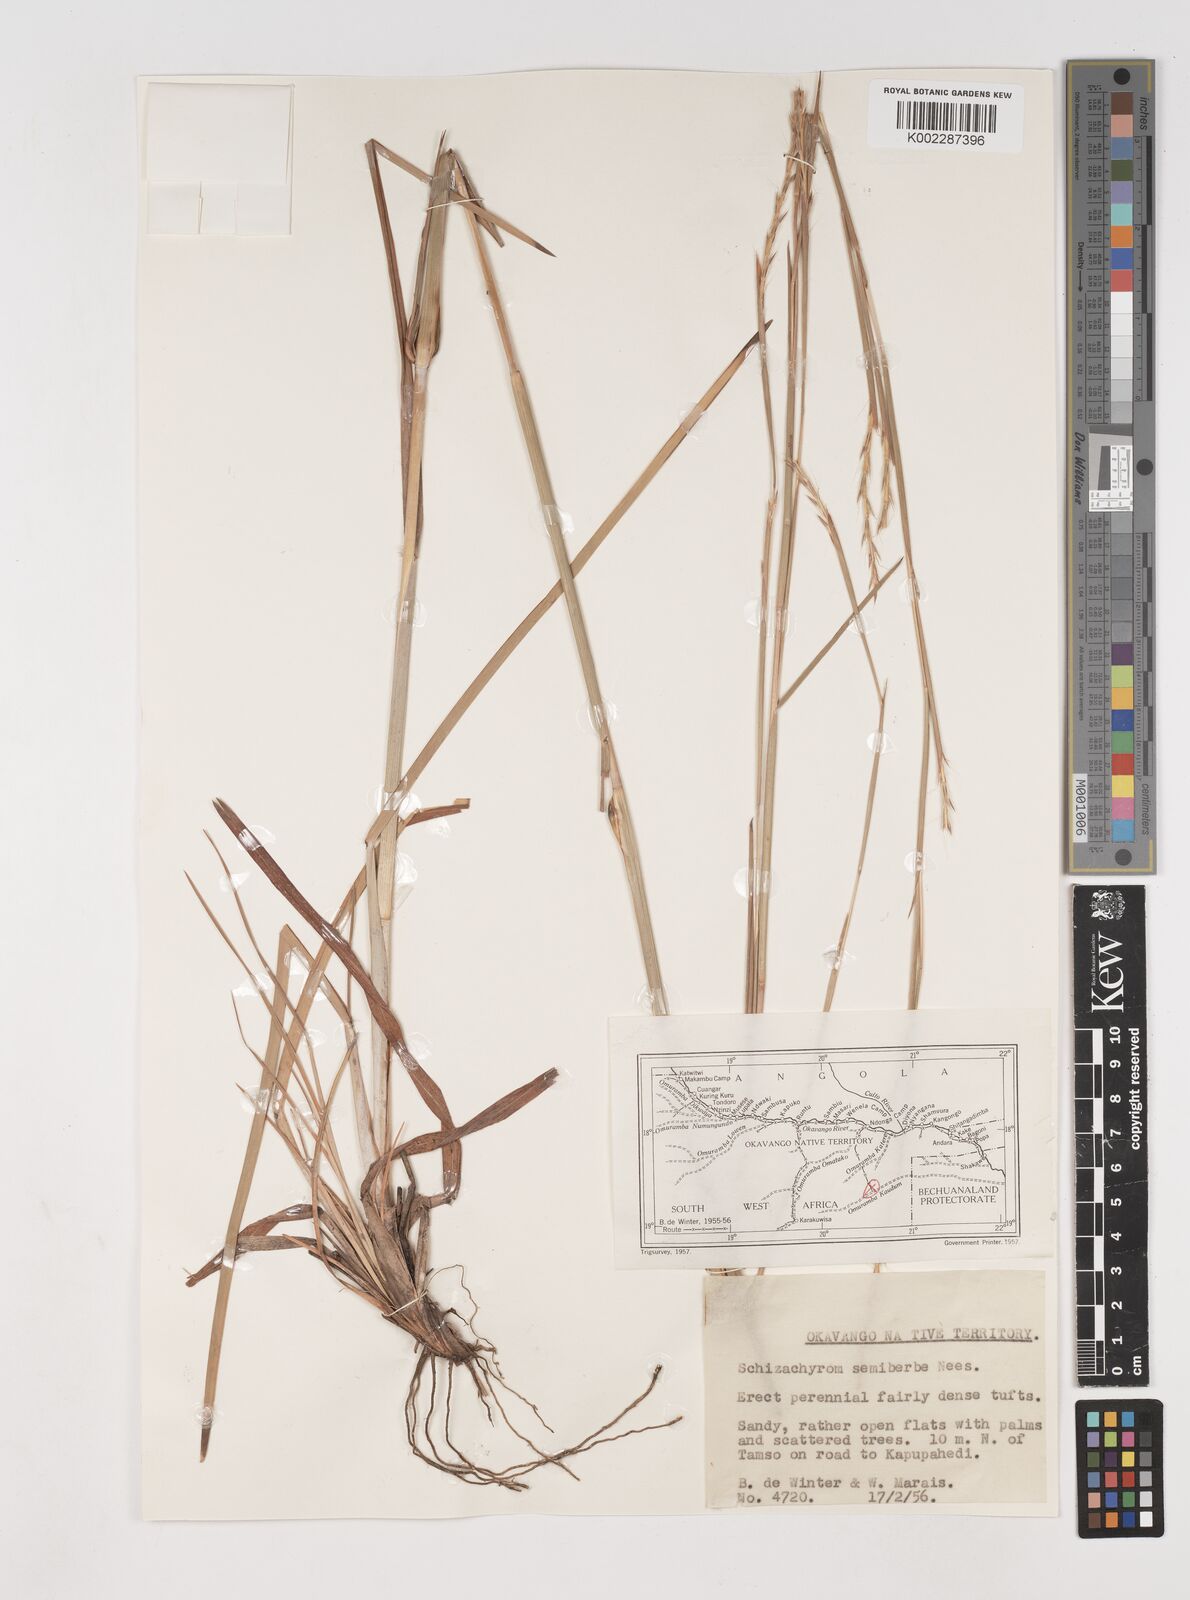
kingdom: Plantae
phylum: Tracheophyta
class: Liliopsida
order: Poales
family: Poaceae
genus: Schizachyrium
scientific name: Schizachyrium sanguineum
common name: Crimson bluestem
